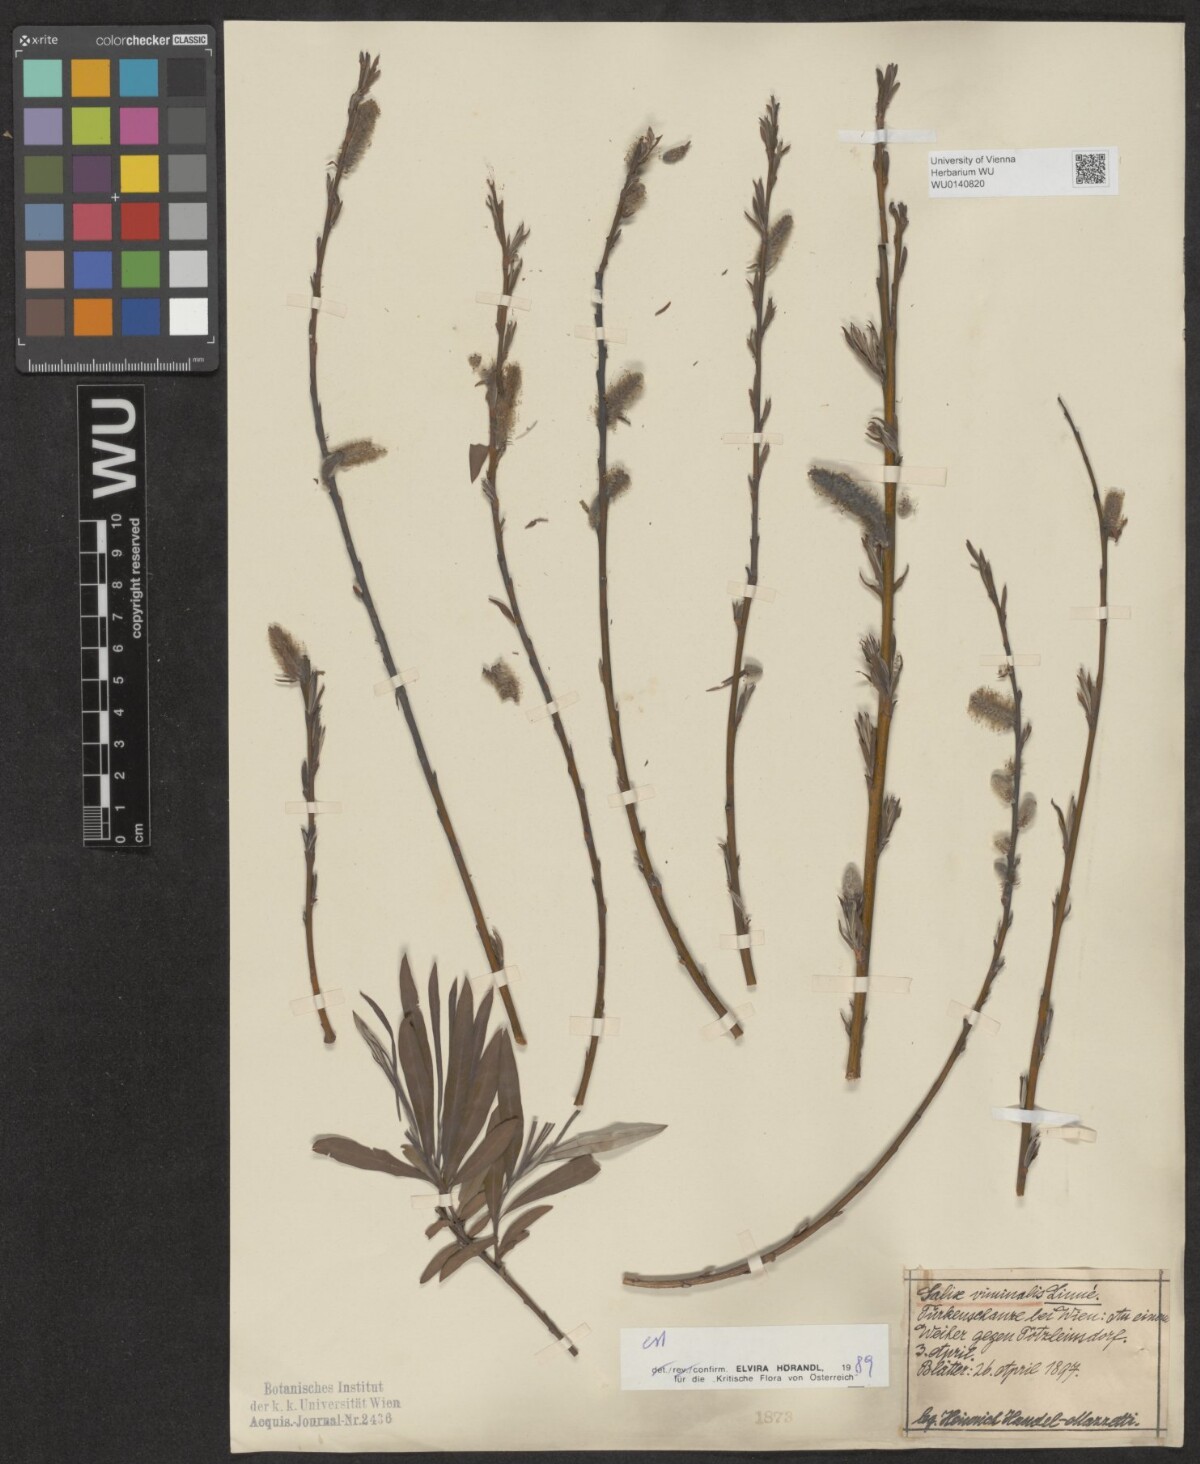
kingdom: Plantae
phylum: Tracheophyta
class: Magnoliopsida
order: Malpighiales
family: Salicaceae
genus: Salix
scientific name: Salix viminalis
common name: Osier
